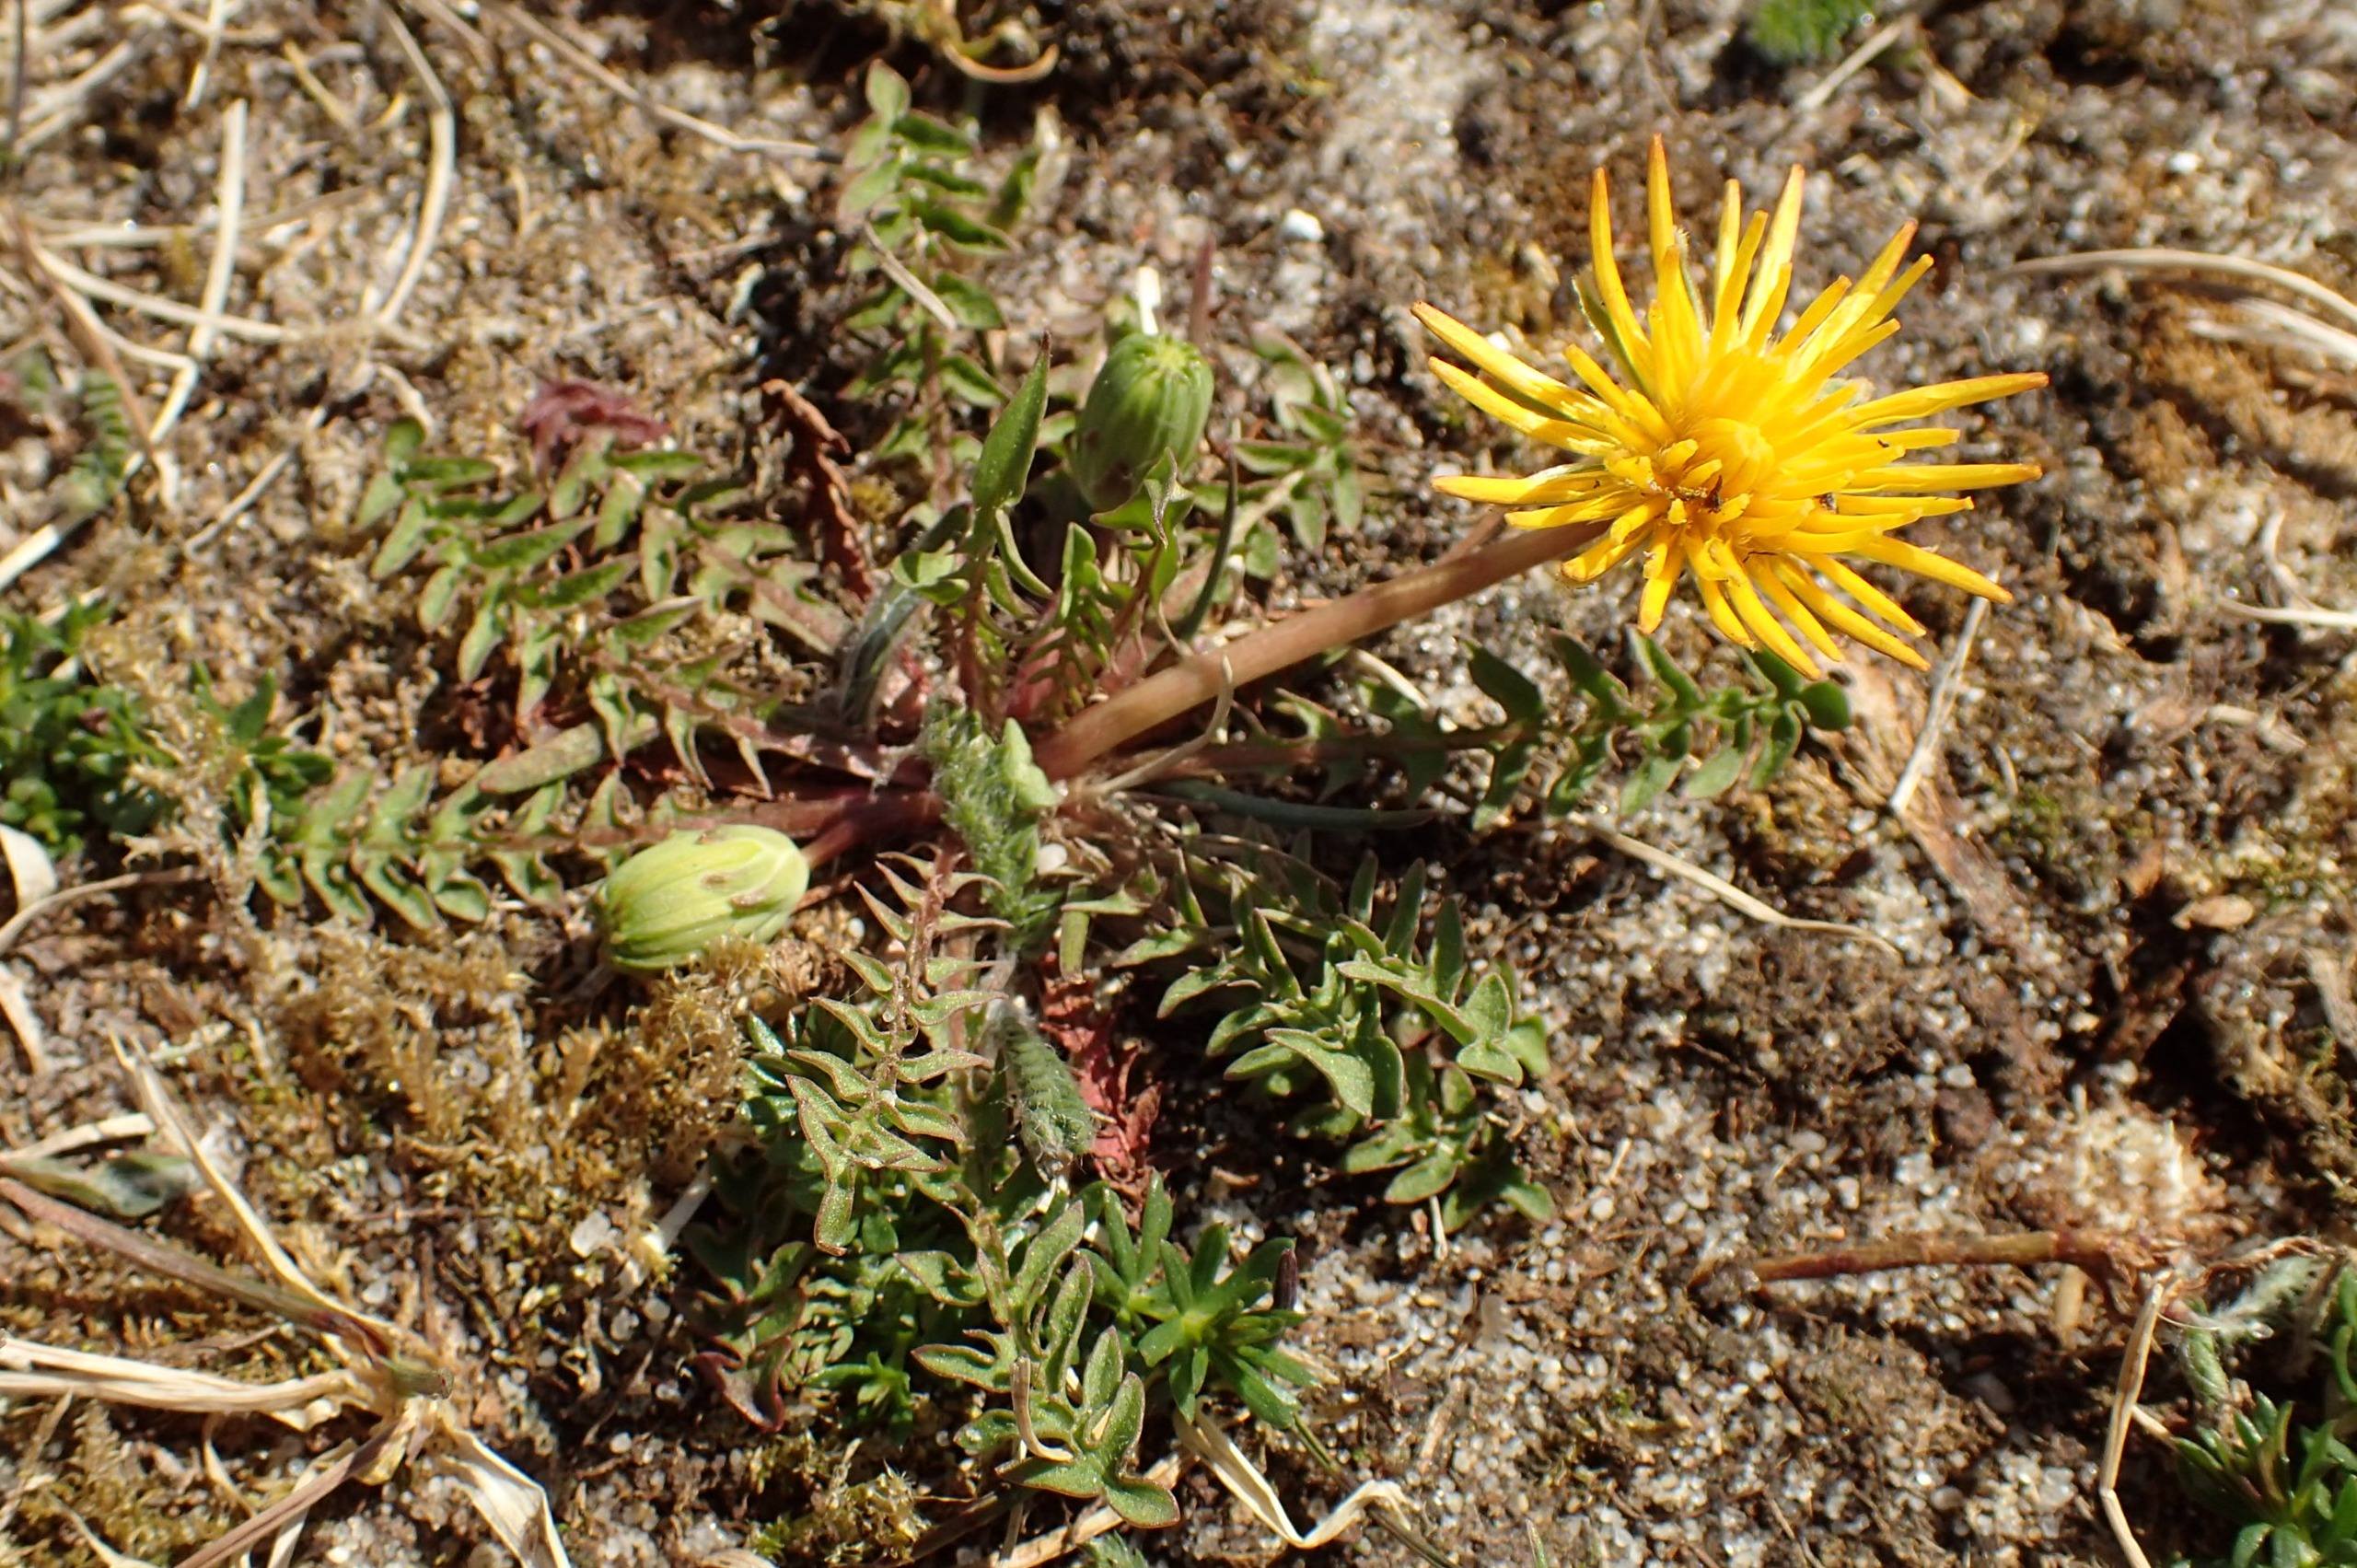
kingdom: Plantae
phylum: Tracheophyta
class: Magnoliopsida
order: Asterales
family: Asteraceae
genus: Taraxacum
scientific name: Taraxacum obliquum
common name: Gråfrugtet dværgmælkebøtte
